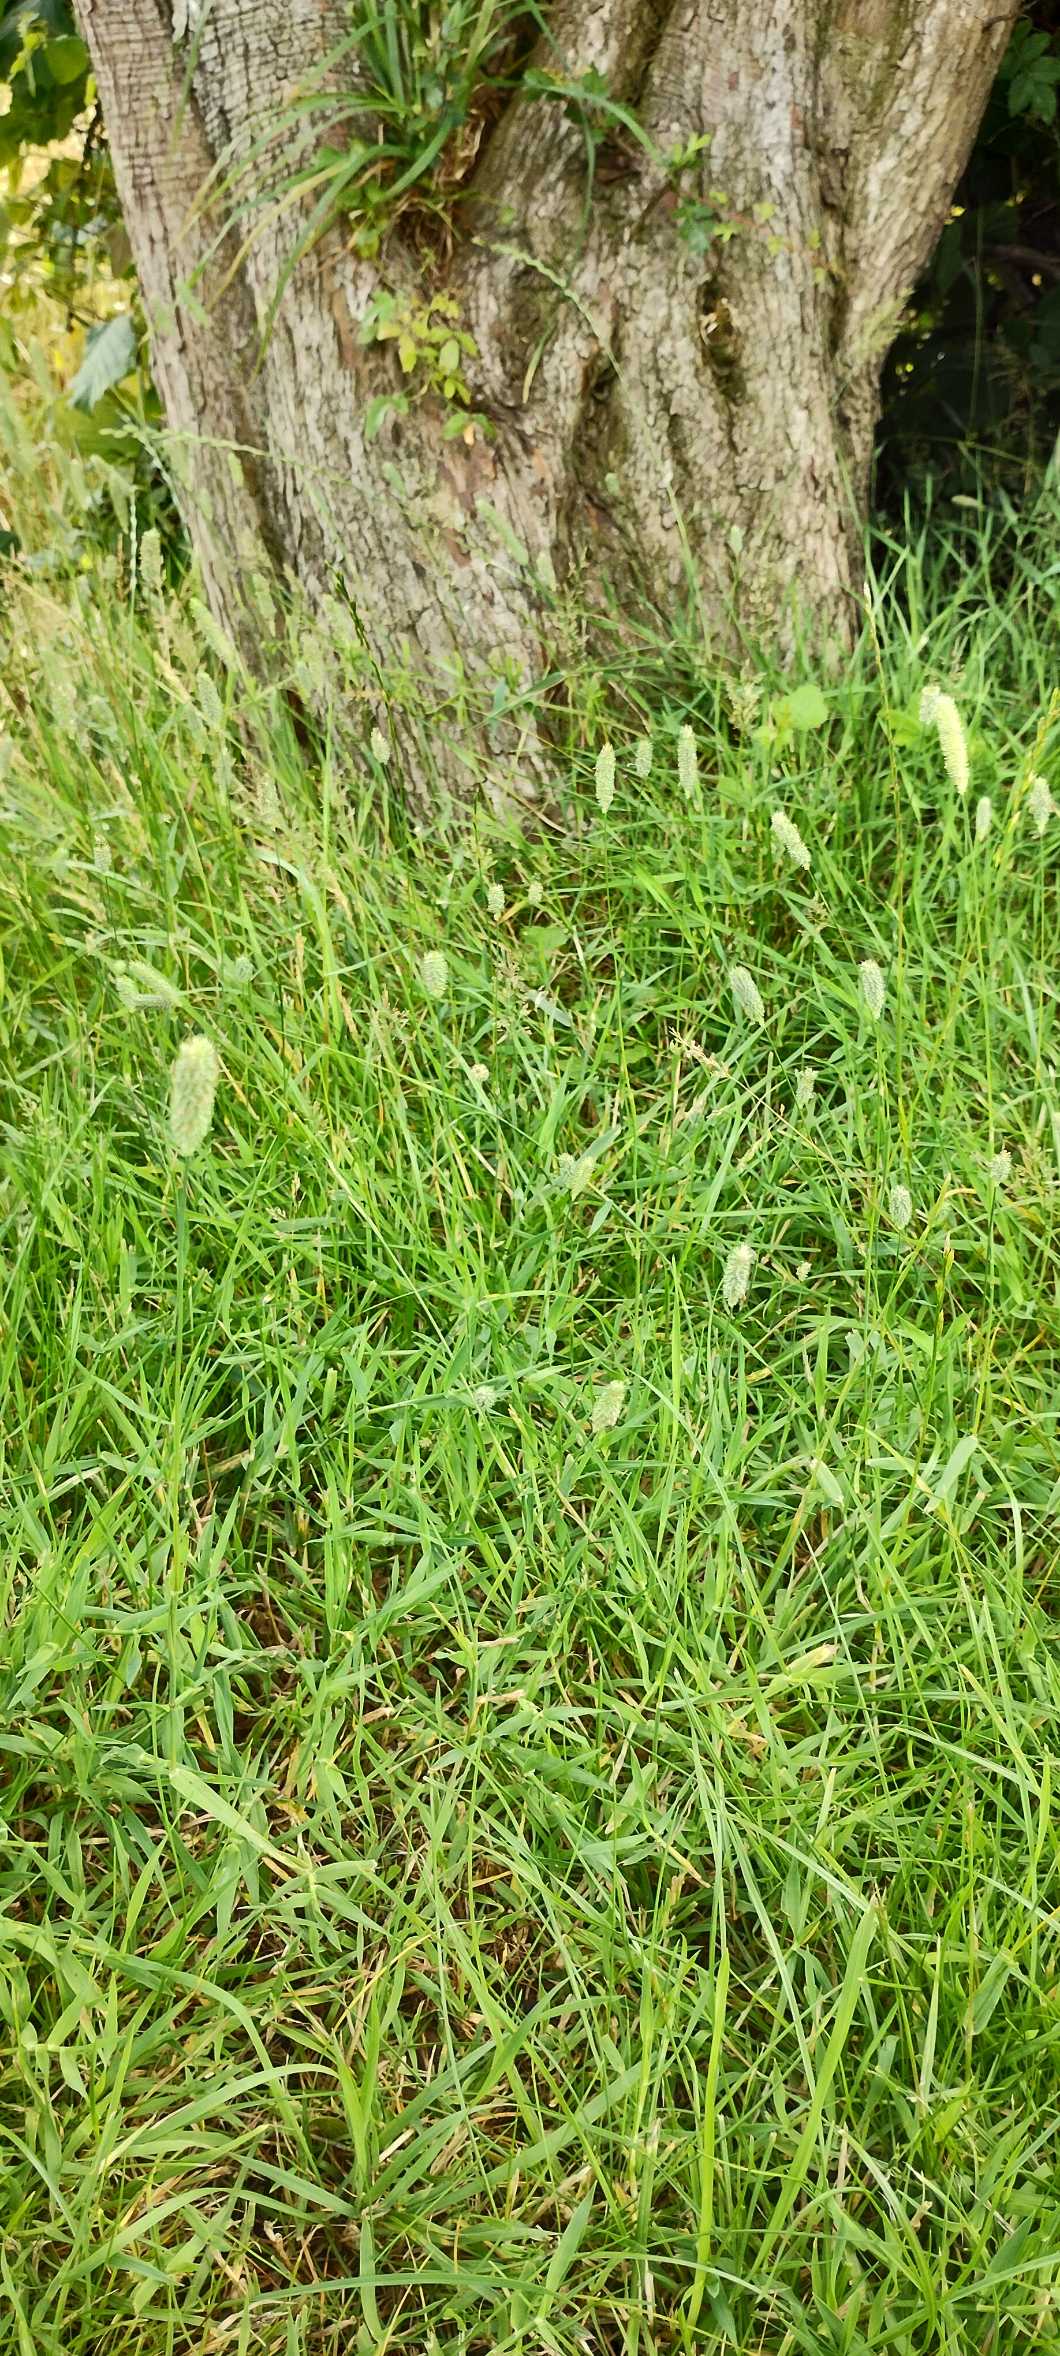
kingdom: Plantae
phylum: Tracheophyta
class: Liliopsida
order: Poales
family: Poaceae
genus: Phleum
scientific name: Phleum pratense
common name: Eng-rottehale
